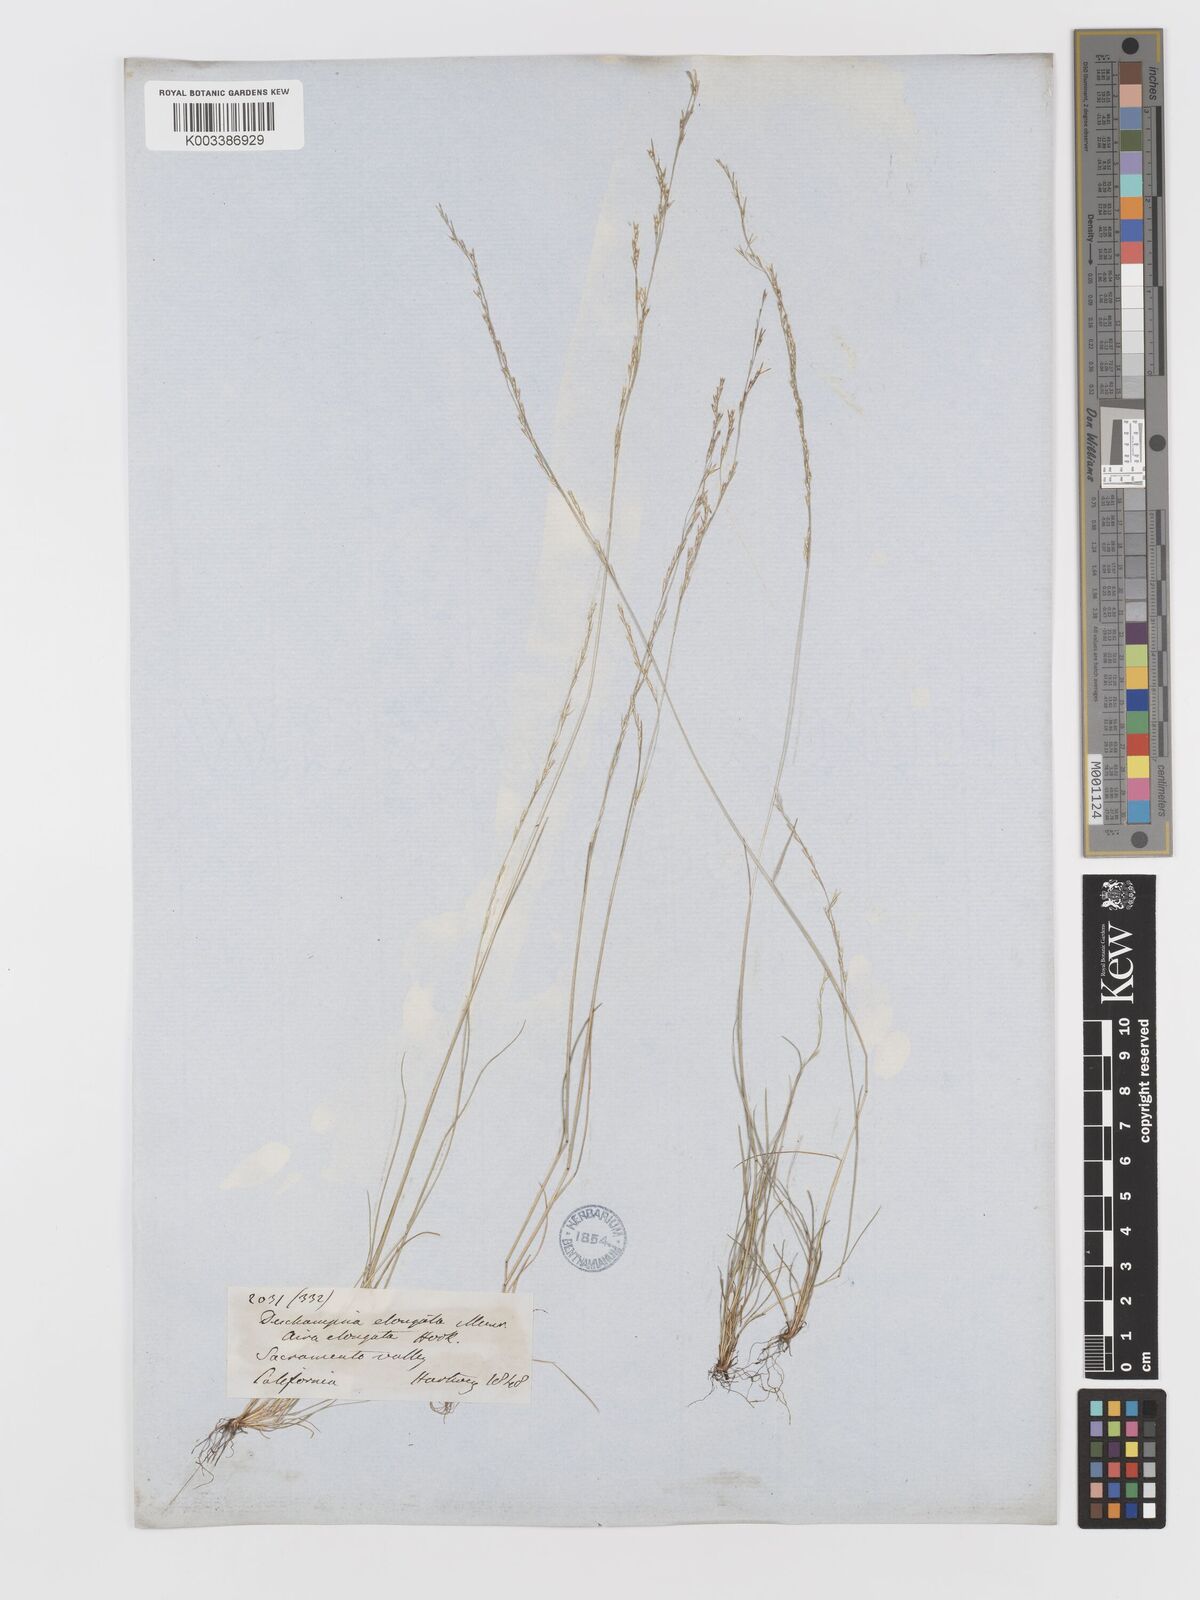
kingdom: Plantae
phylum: Tracheophyta
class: Liliopsida
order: Poales
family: Poaceae
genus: Deschampsia
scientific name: Deschampsia elongata
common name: Slender hairgrass
